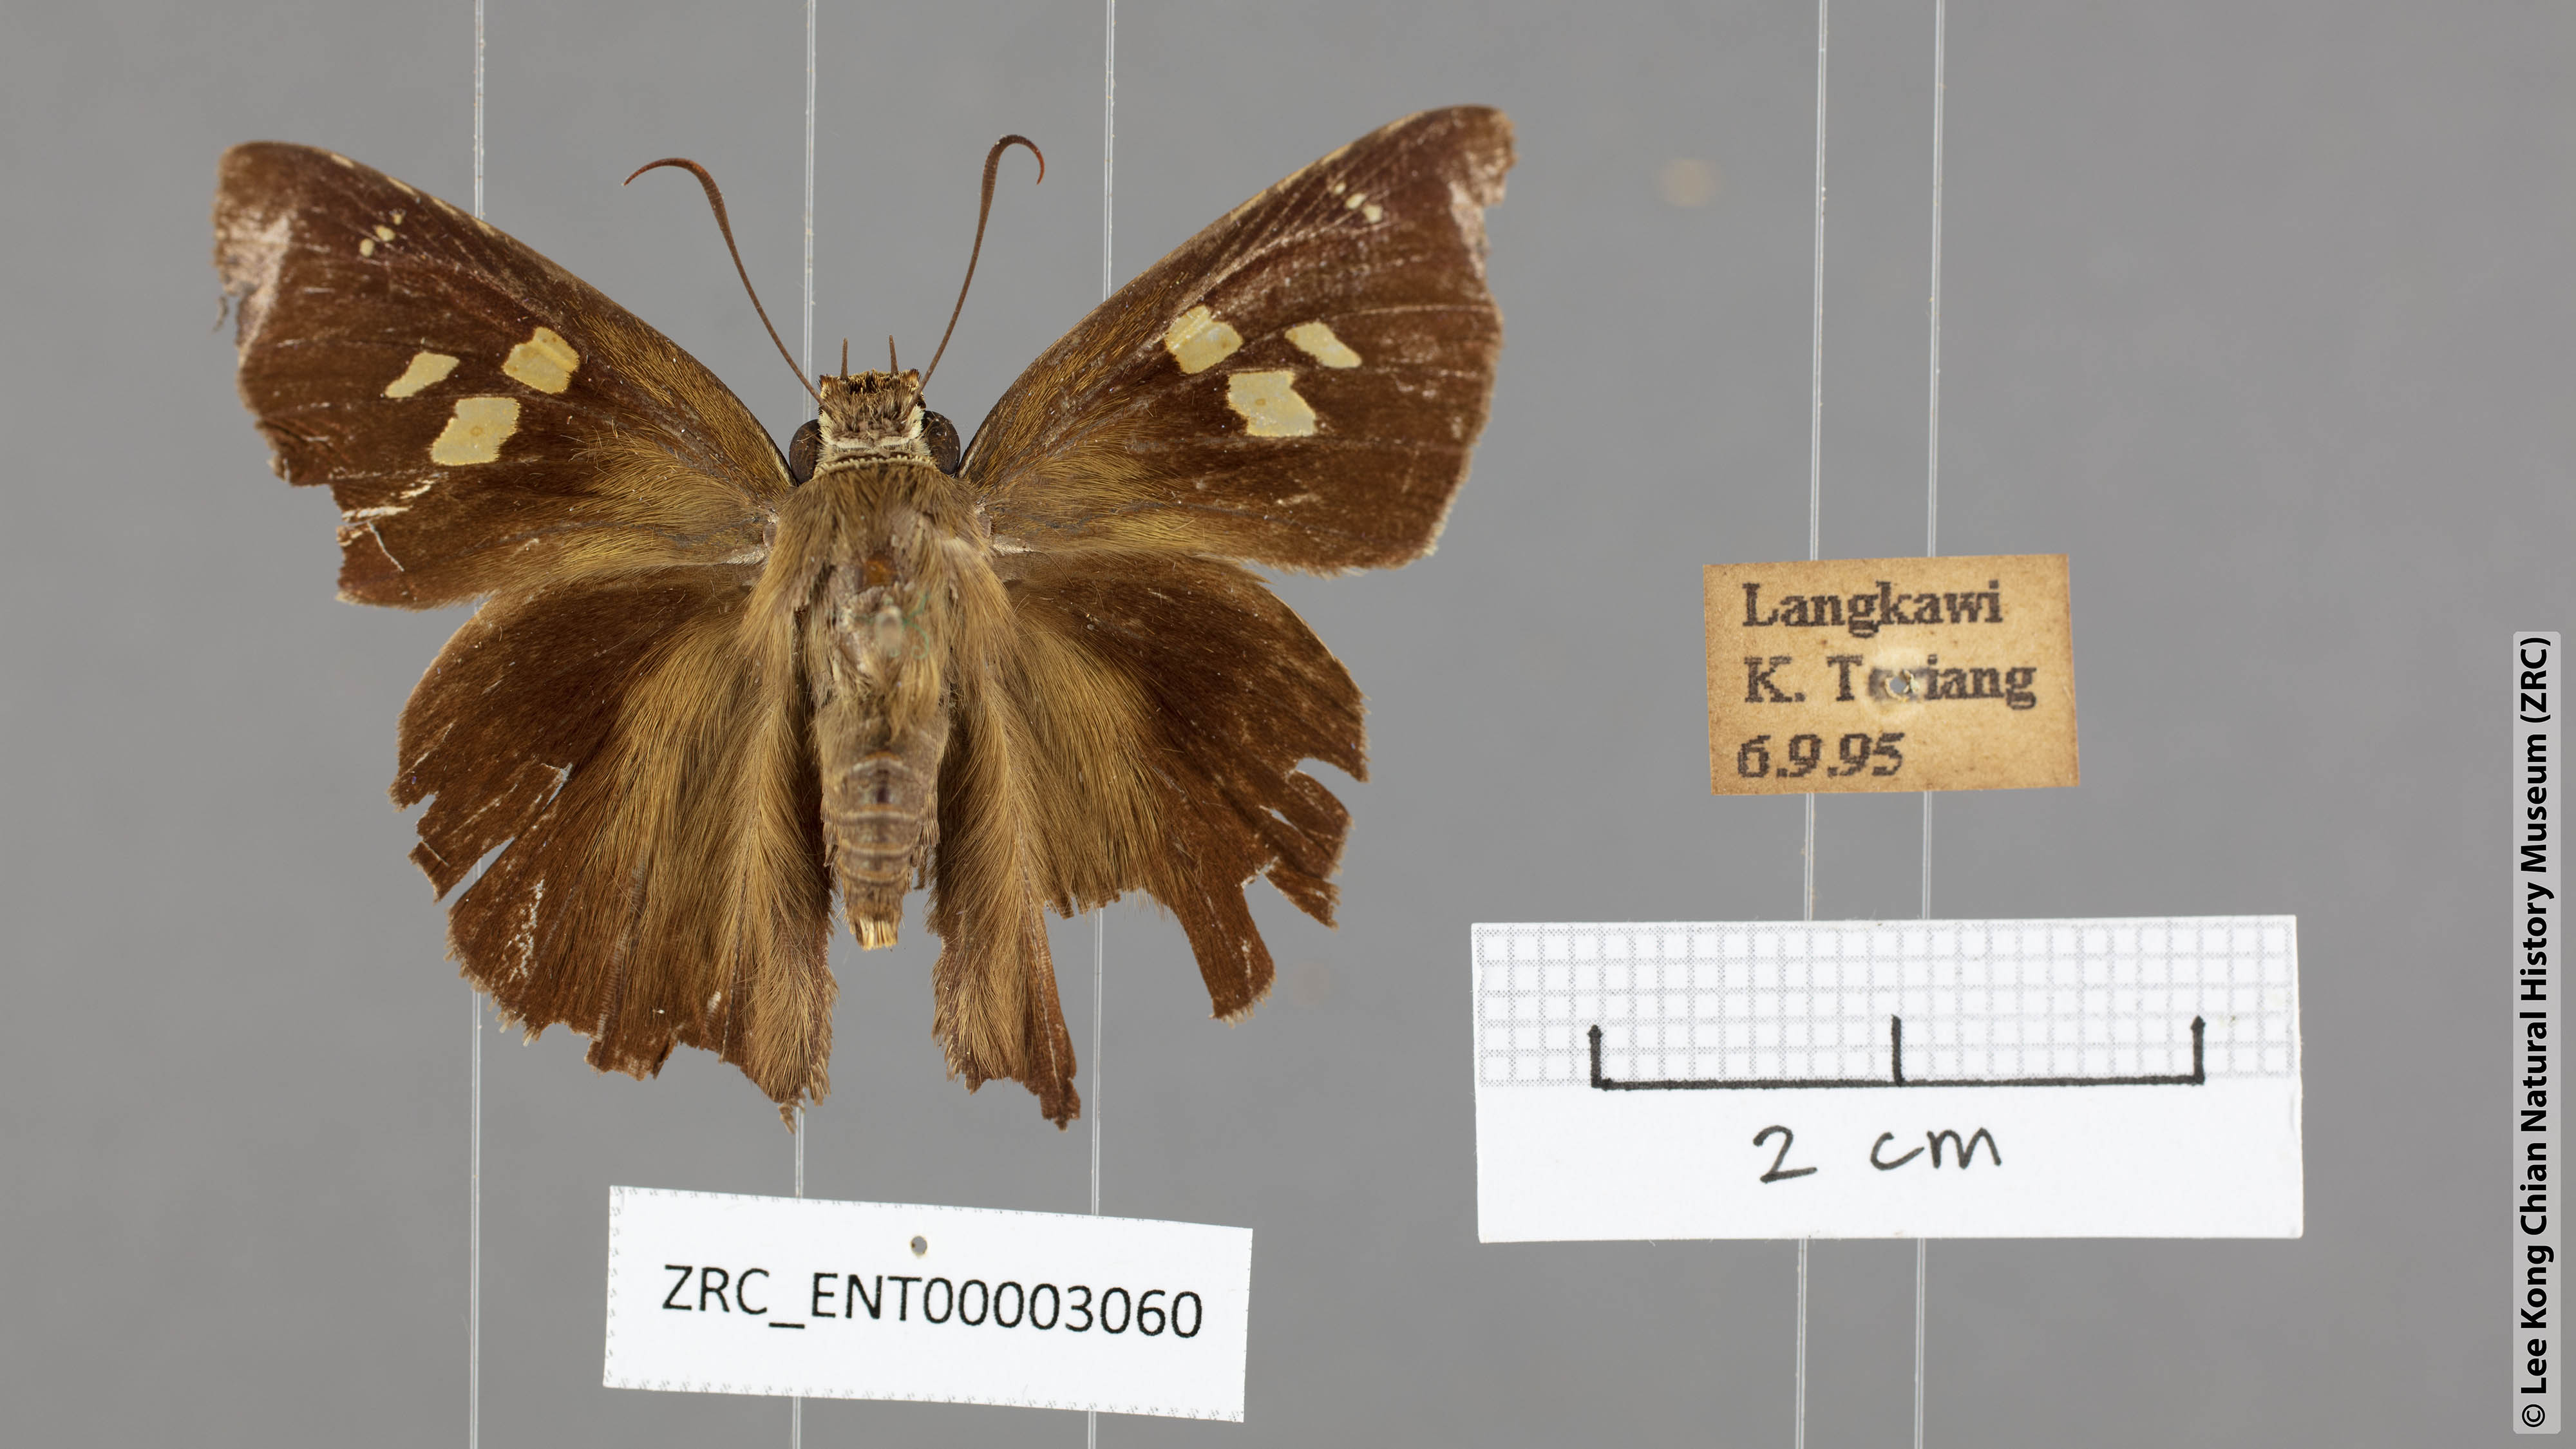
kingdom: Animalia
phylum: Arthropoda
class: Insecta
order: Lepidoptera
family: Hesperiidae
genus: Hasora
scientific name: Hasora badra
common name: Common awl
